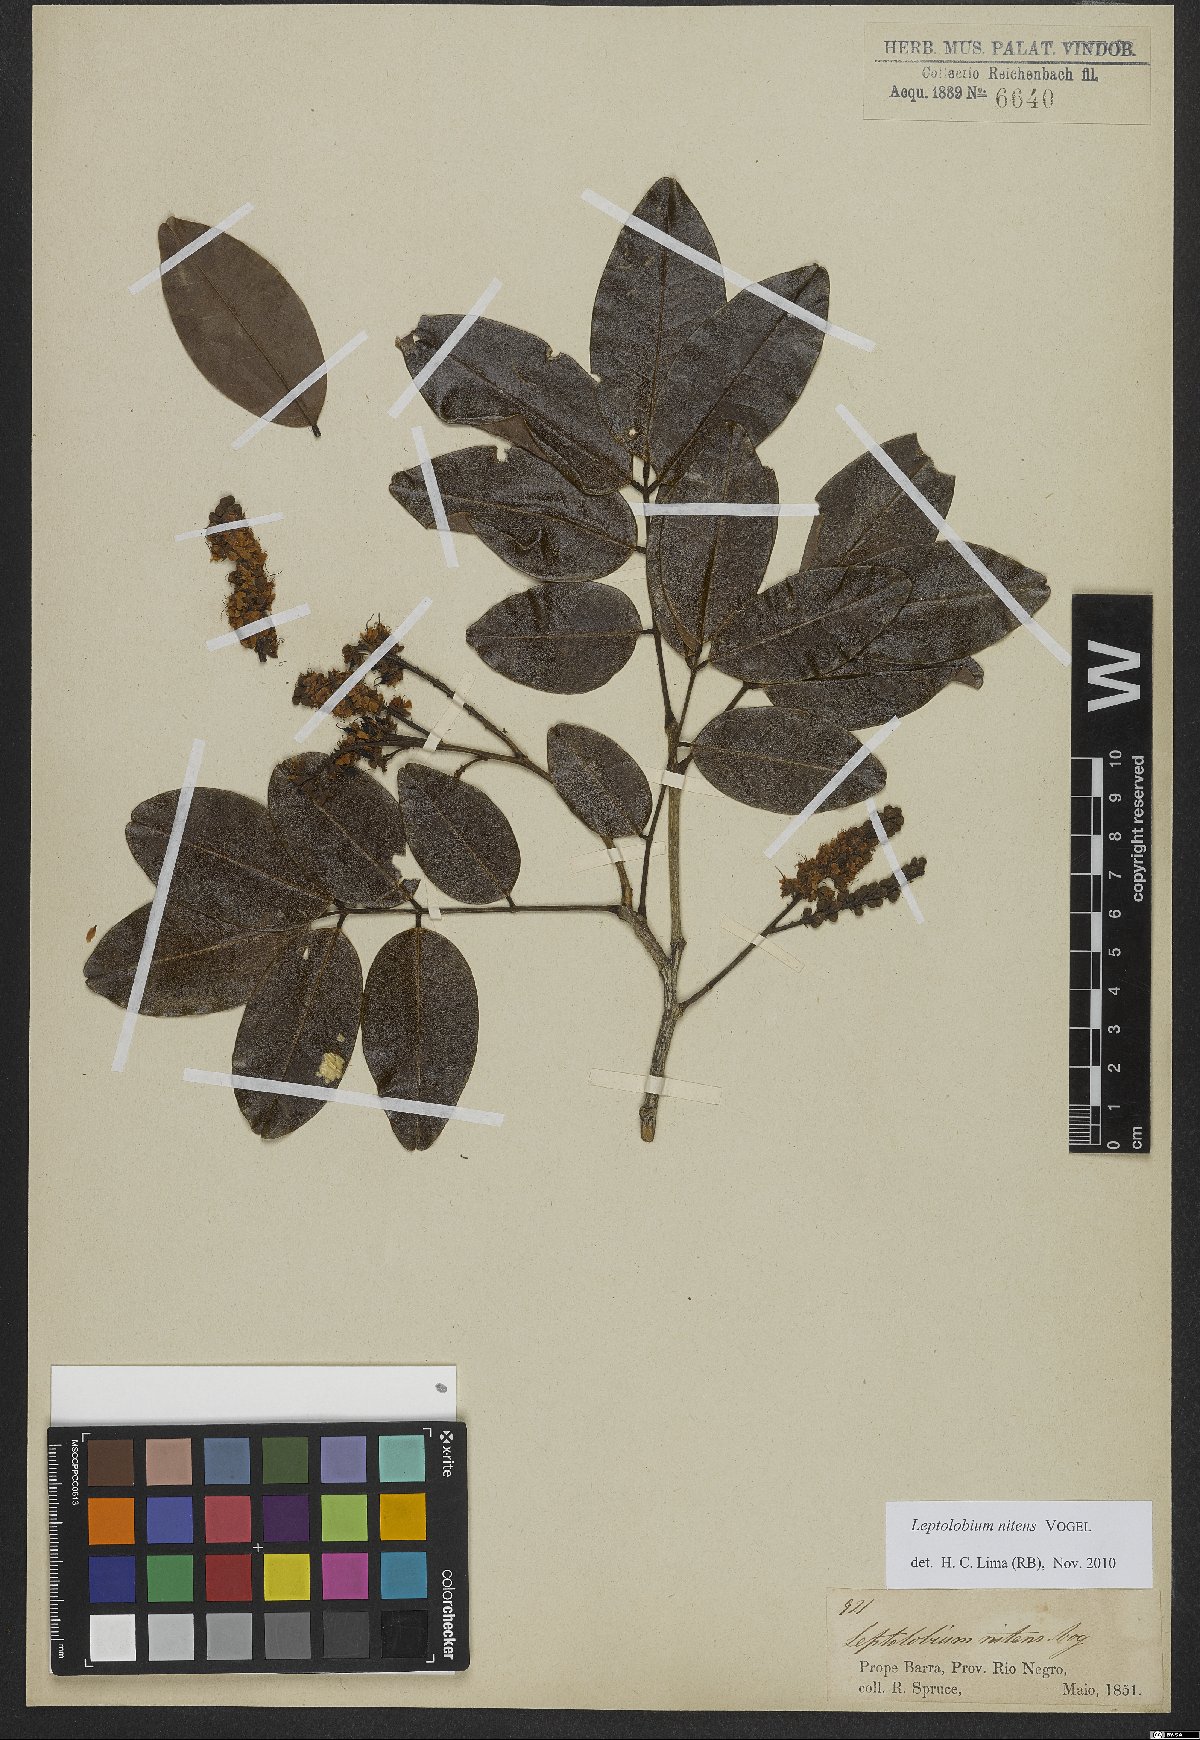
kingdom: Plantae
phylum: Tracheophyta
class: Magnoliopsida
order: Fabales
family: Fabaceae
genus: Leptolobium
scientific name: Leptolobium nitens
